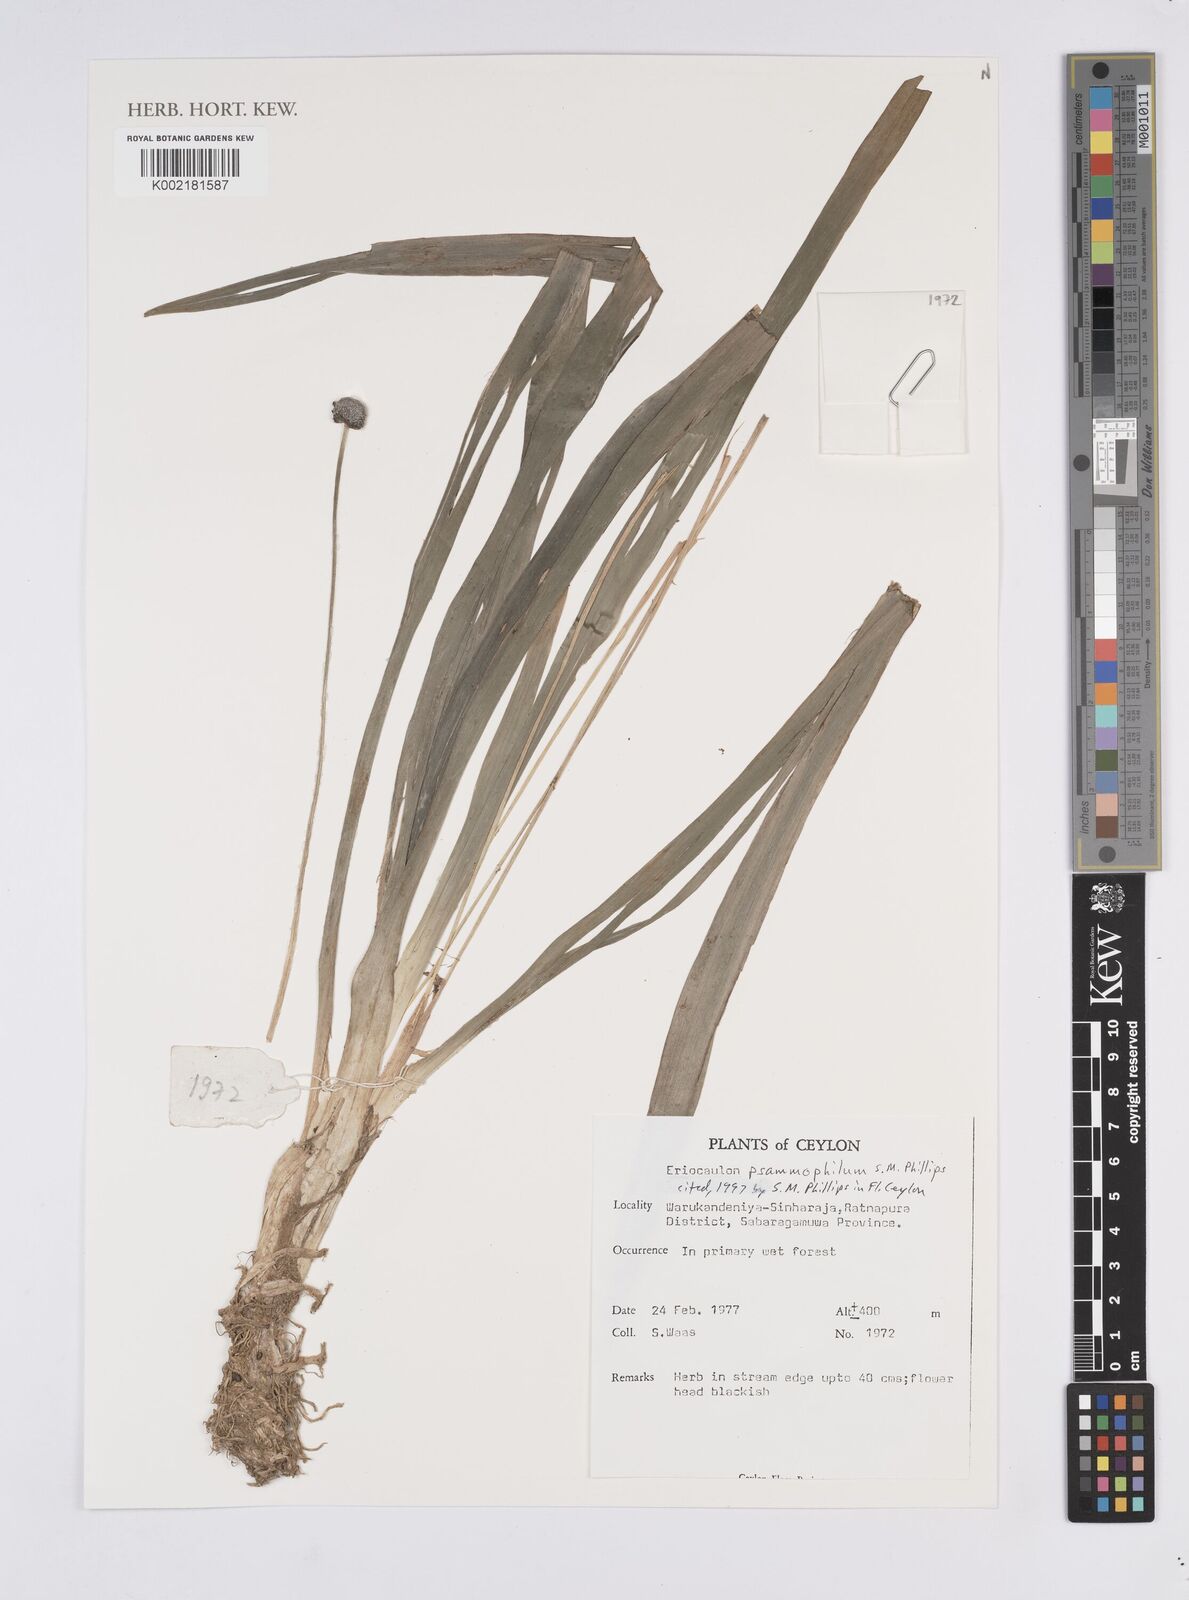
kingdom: Plantae
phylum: Tracheophyta
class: Liliopsida
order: Poales
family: Eriocaulaceae
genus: Eriocaulon
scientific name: Eriocaulon psammophilum
